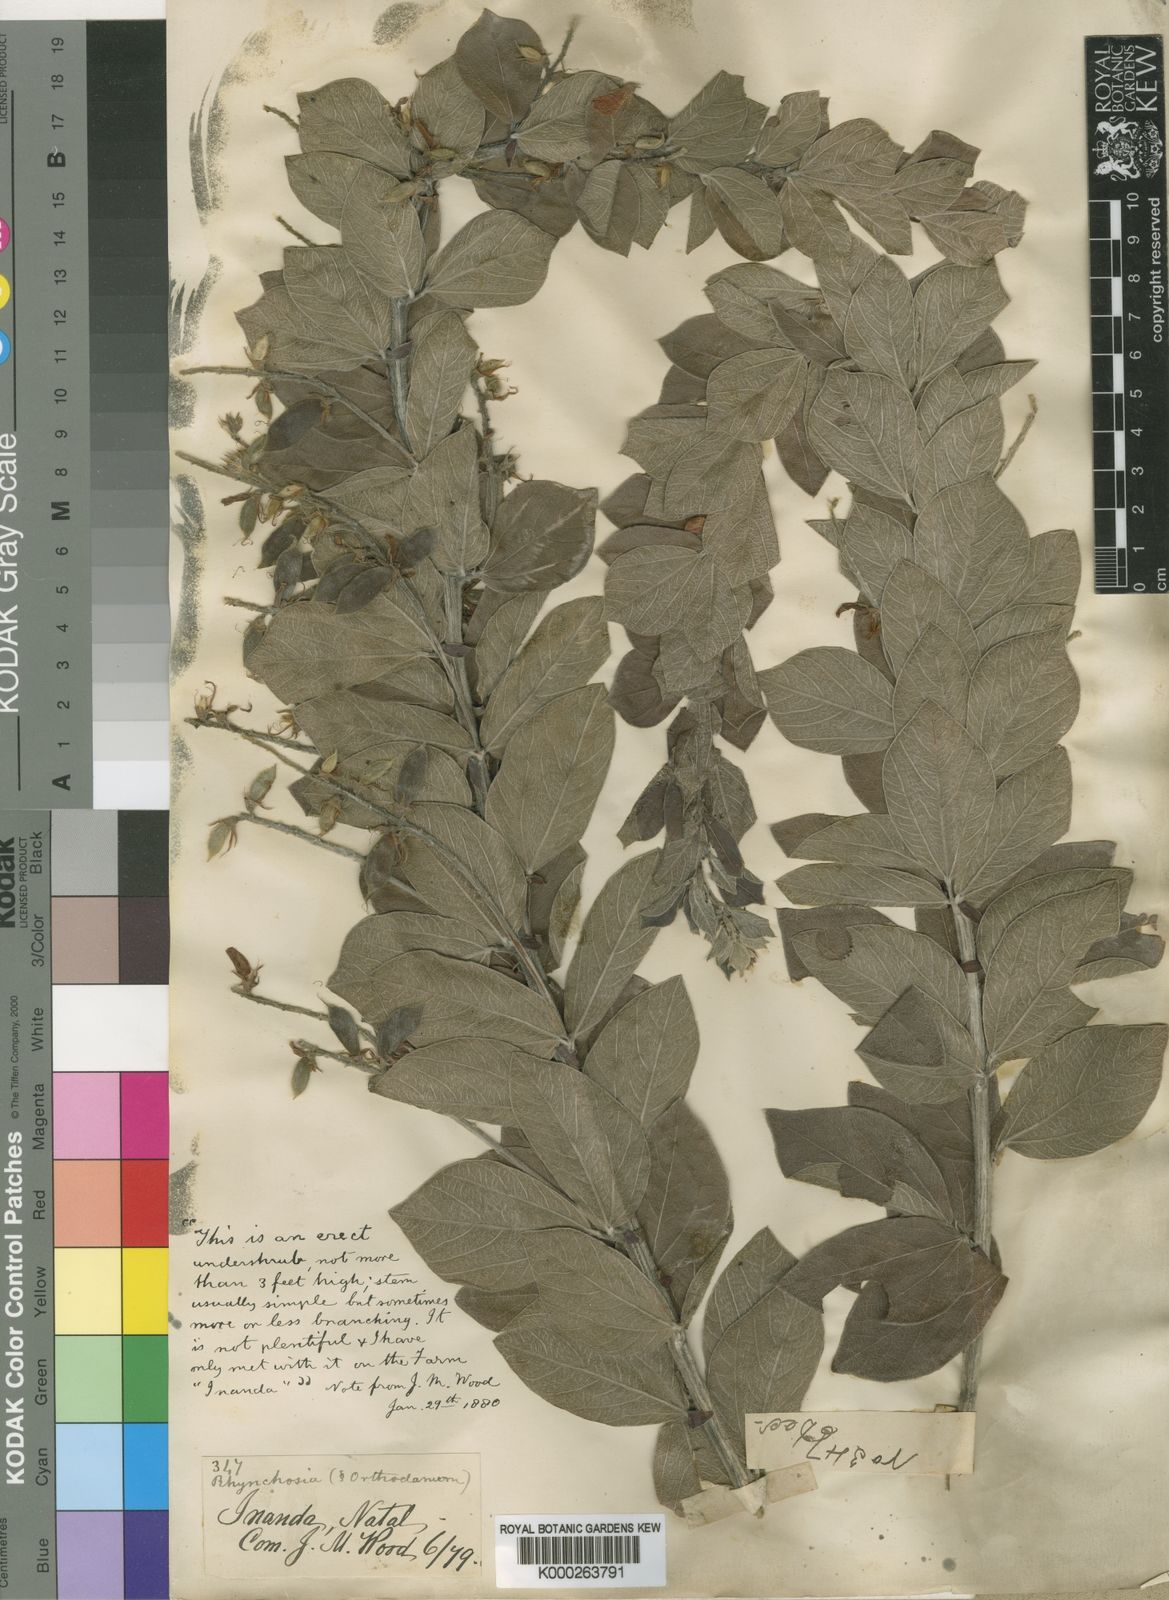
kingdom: Plantae
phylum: Tracheophyta
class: Magnoliopsida
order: Fabales
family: Fabaceae
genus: Rhynchosia
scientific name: Rhynchosia woodii
